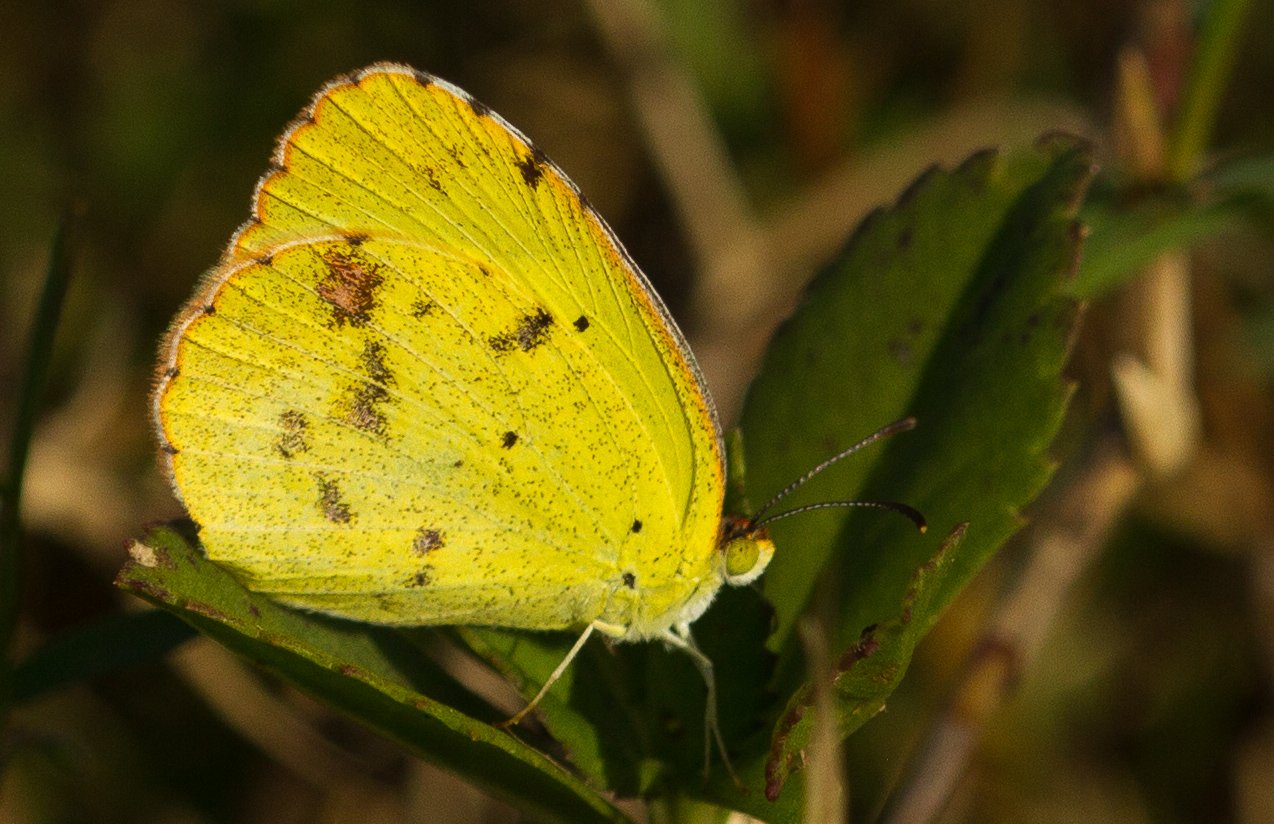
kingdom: Animalia
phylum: Arthropoda
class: Insecta
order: Lepidoptera
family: Pieridae
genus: Pyrisitia
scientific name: Pyrisitia lisa
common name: Little Yellow
